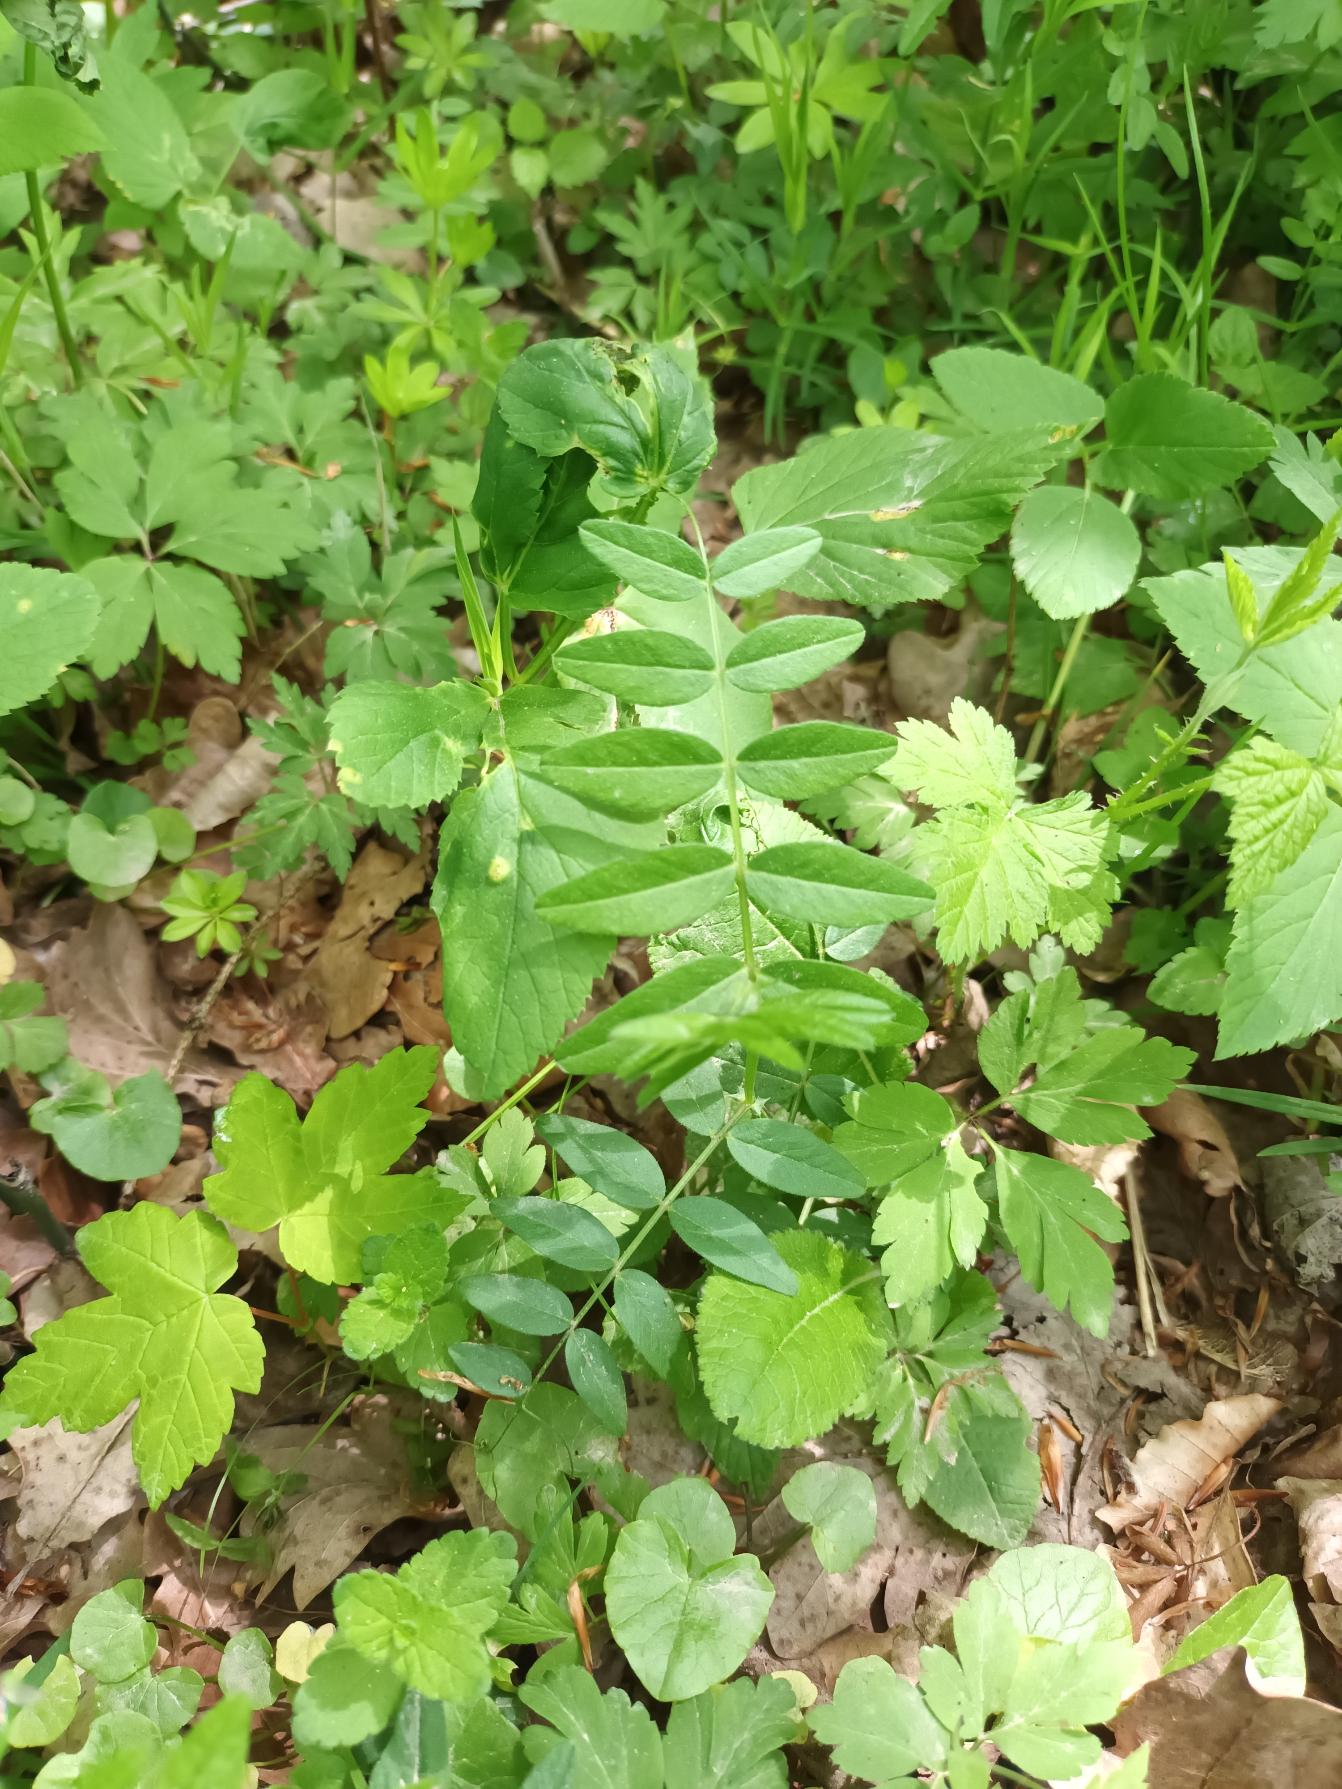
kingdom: Plantae
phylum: Tracheophyta
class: Magnoliopsida
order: Fabales
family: Fabaceae
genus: Vicia
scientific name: Vicia sepium
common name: Gærde-vikke
